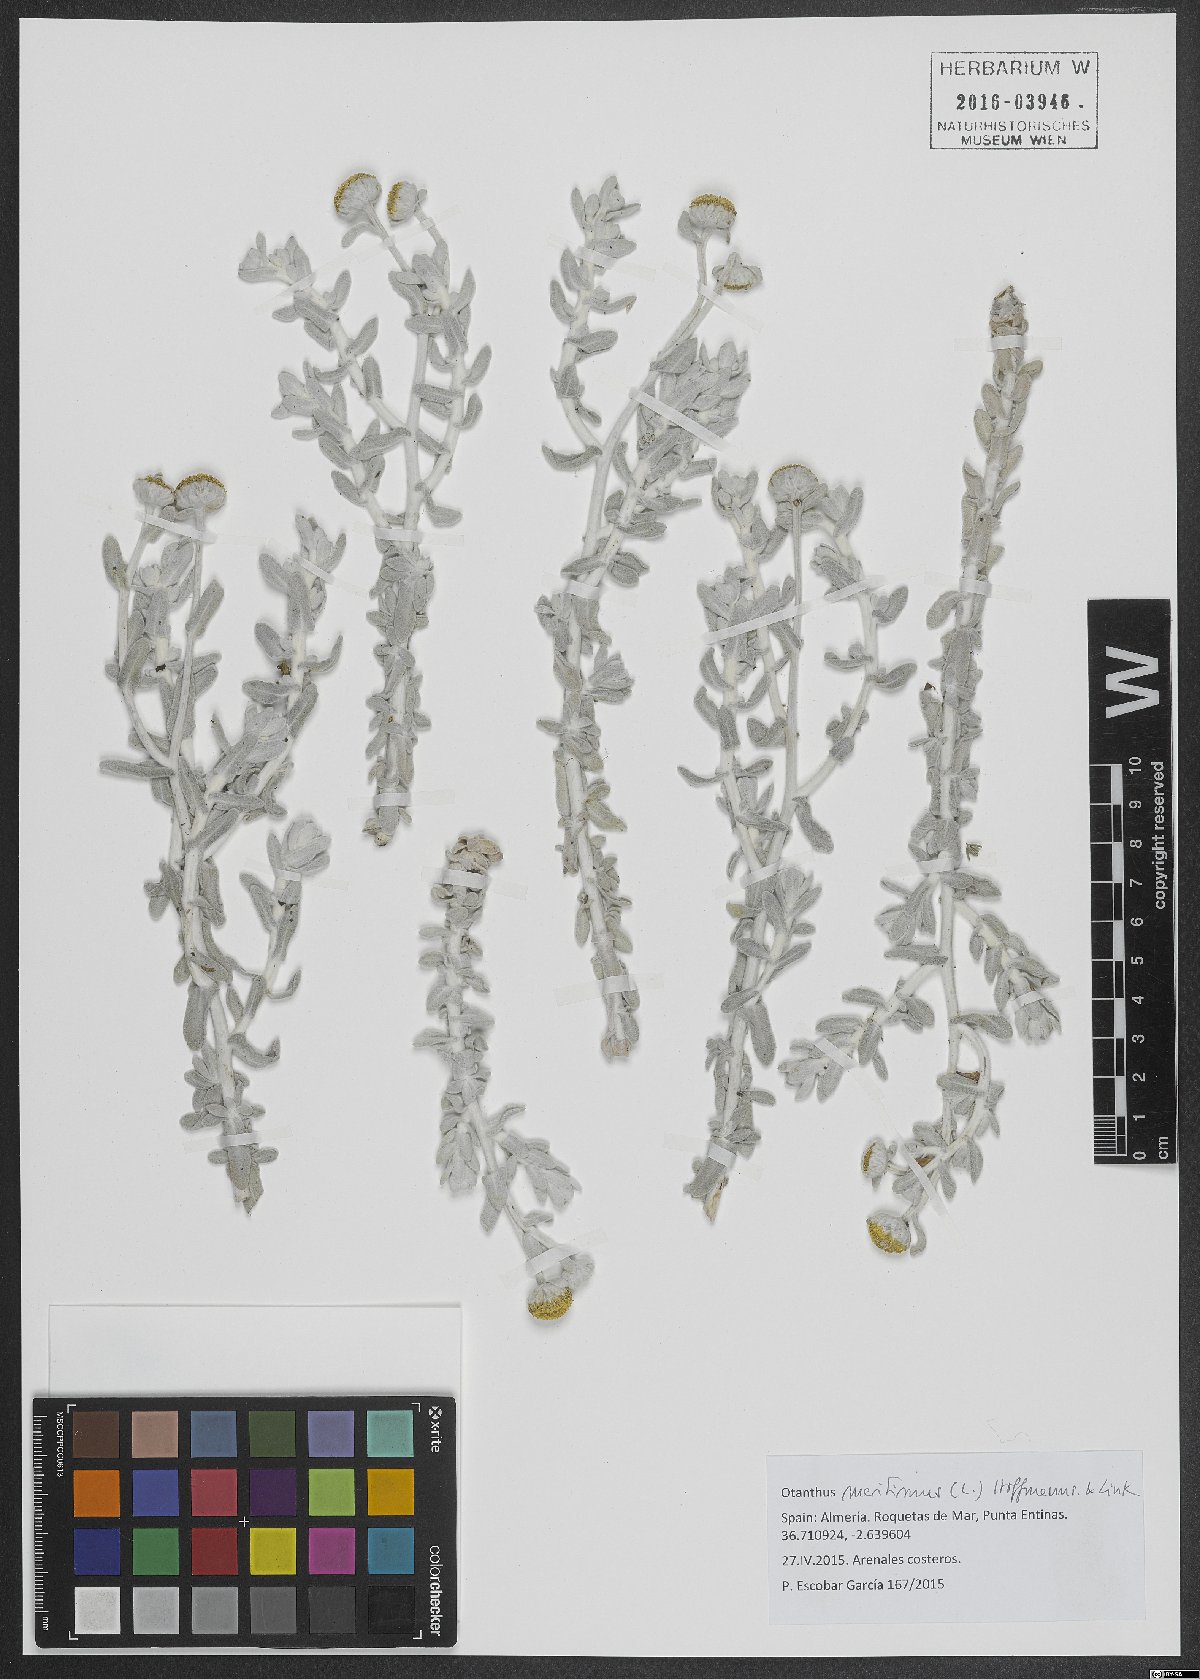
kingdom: Plantae
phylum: Tracheophyta
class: Magnoliopsida
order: Asterales
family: Asteraceae
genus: Achillea
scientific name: Achillea maritima
